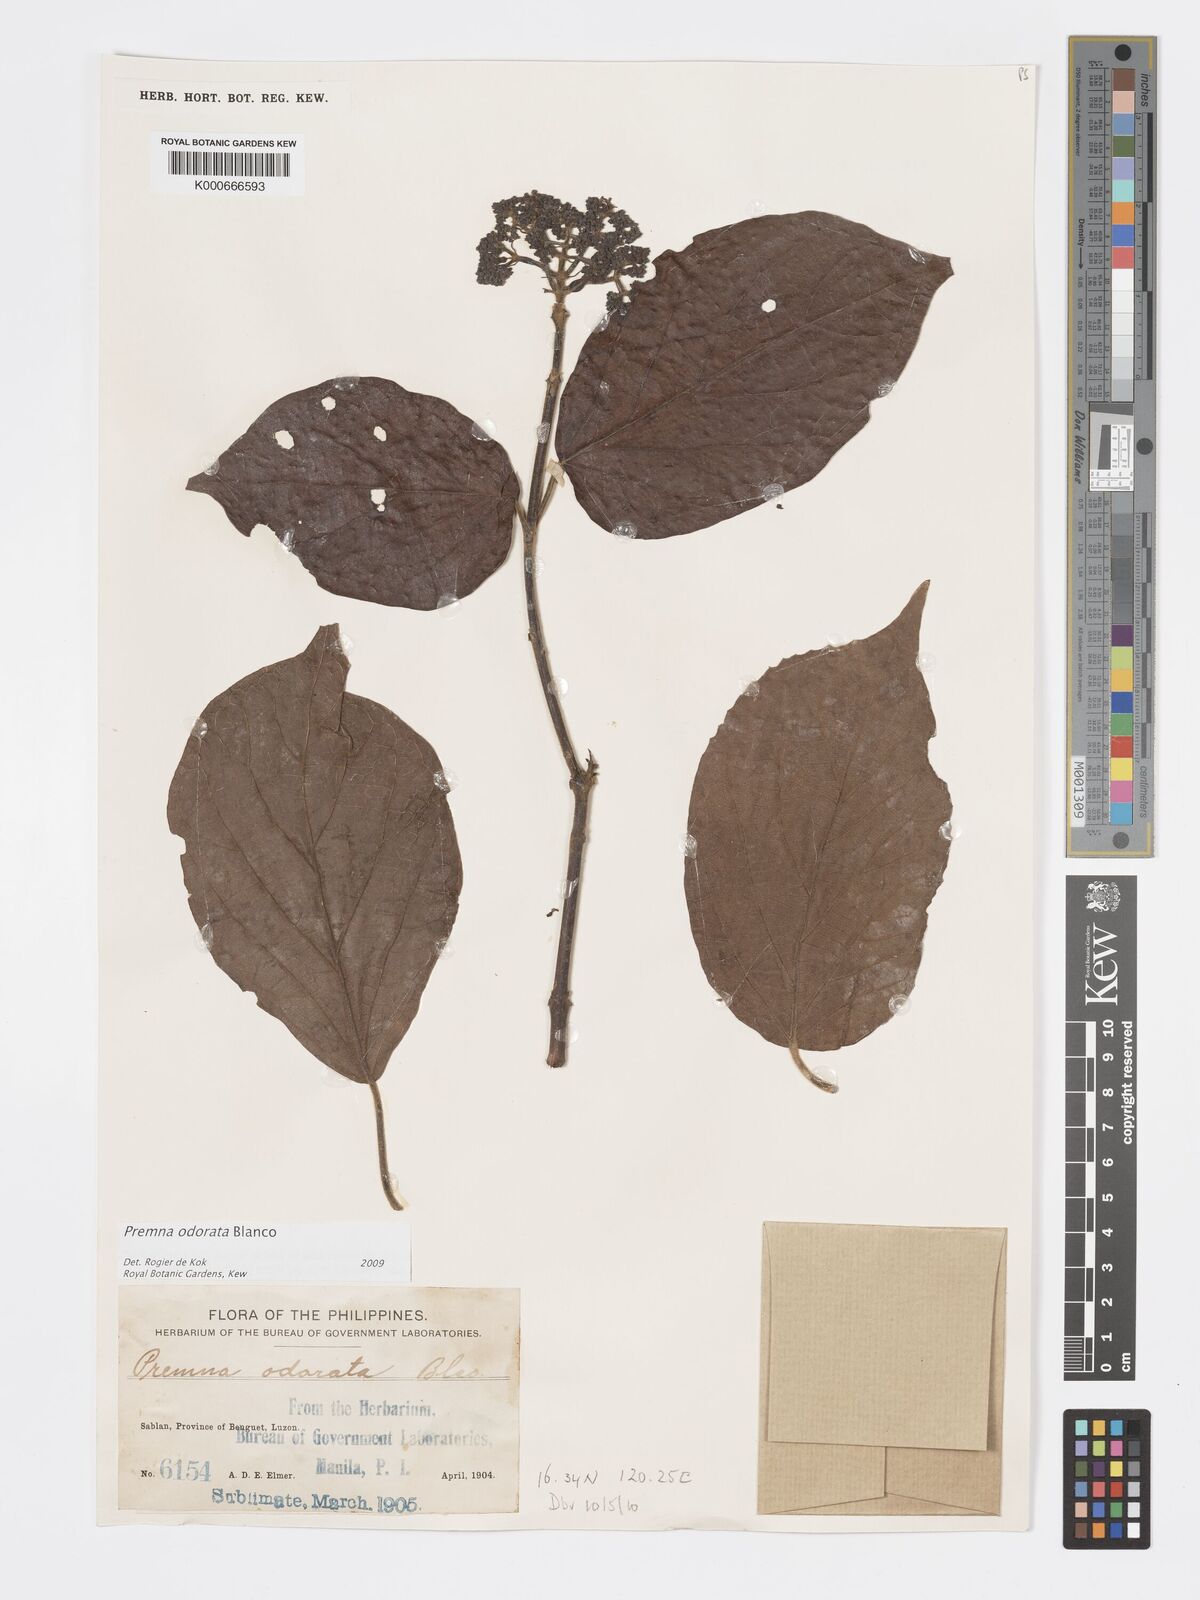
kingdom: Plantae
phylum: Tracheophyta
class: Magnoliopsida
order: Lamiales
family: Lamiaceae
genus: Premna
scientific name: Premna odorata
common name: Fragrant premna
